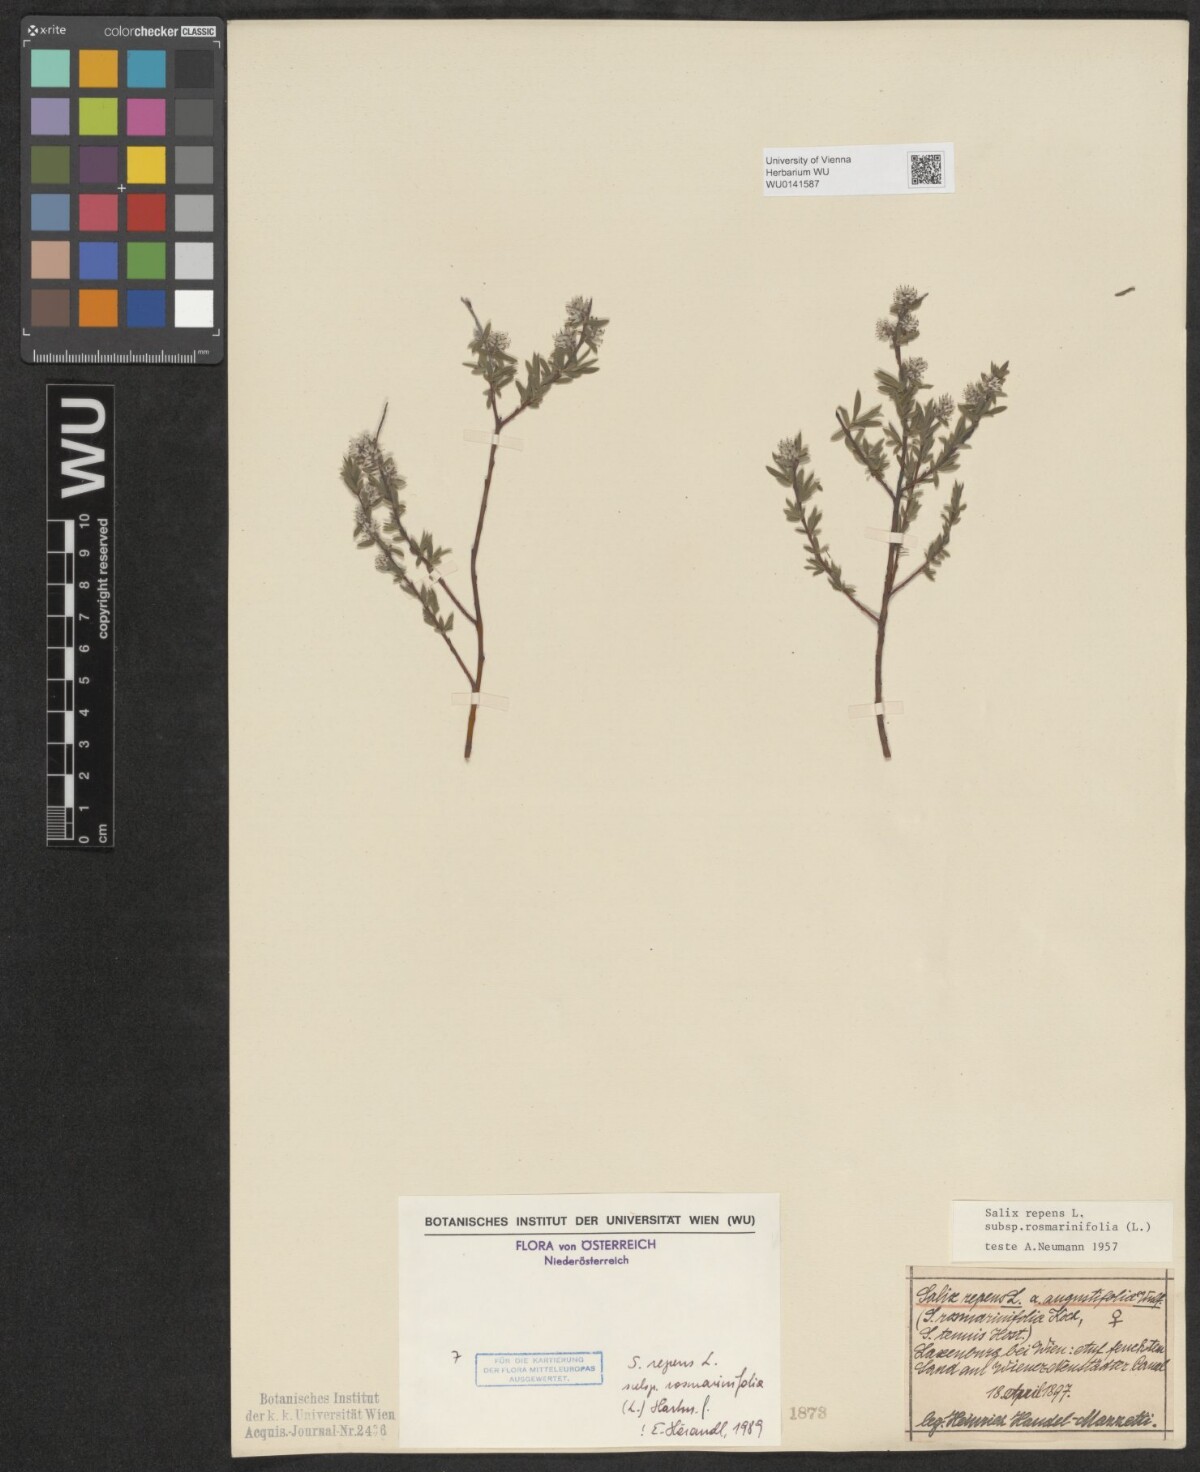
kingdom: Plantae
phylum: Tracheophyta
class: Magnoliopsida
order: Malpighiales
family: Salicaceae
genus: Salix
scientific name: Salix repens
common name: Creeping willow
